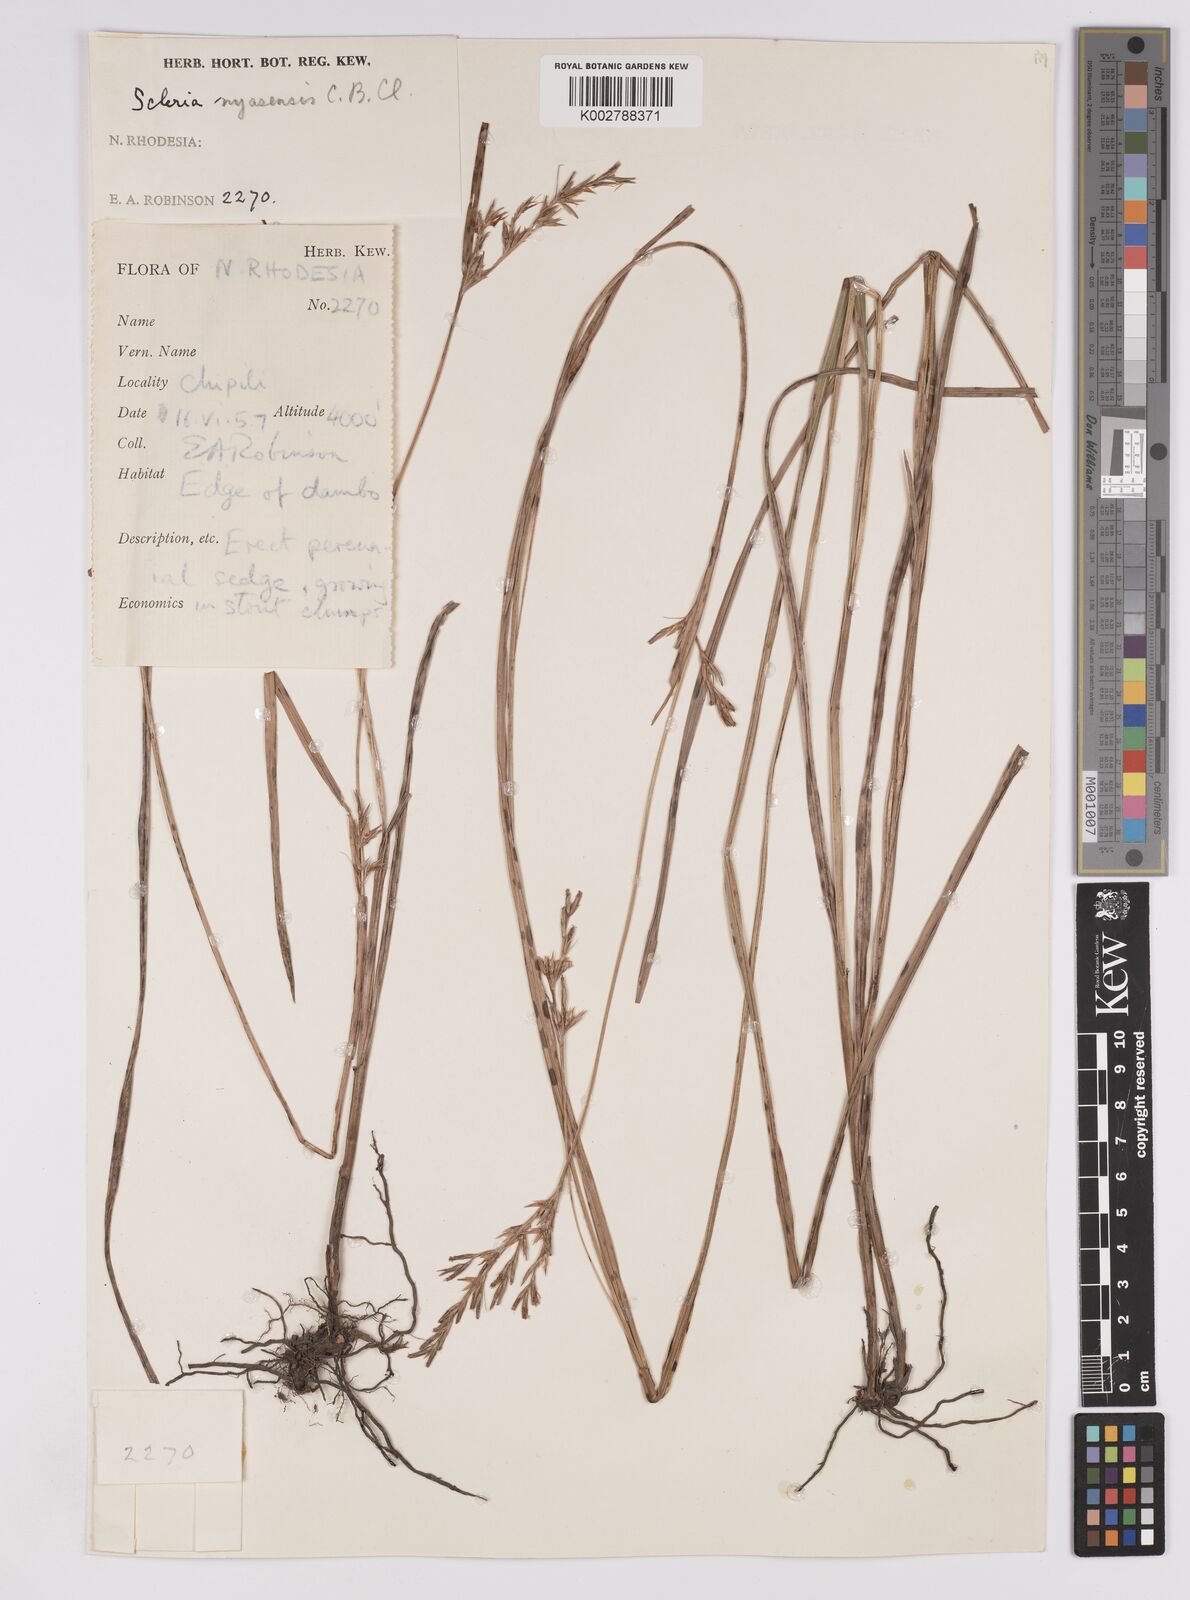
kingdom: Plantae
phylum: Tracheophyta
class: Liliopsida
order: Poales
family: Cyperaceae
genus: Scleria
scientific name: Scleria achtenii
